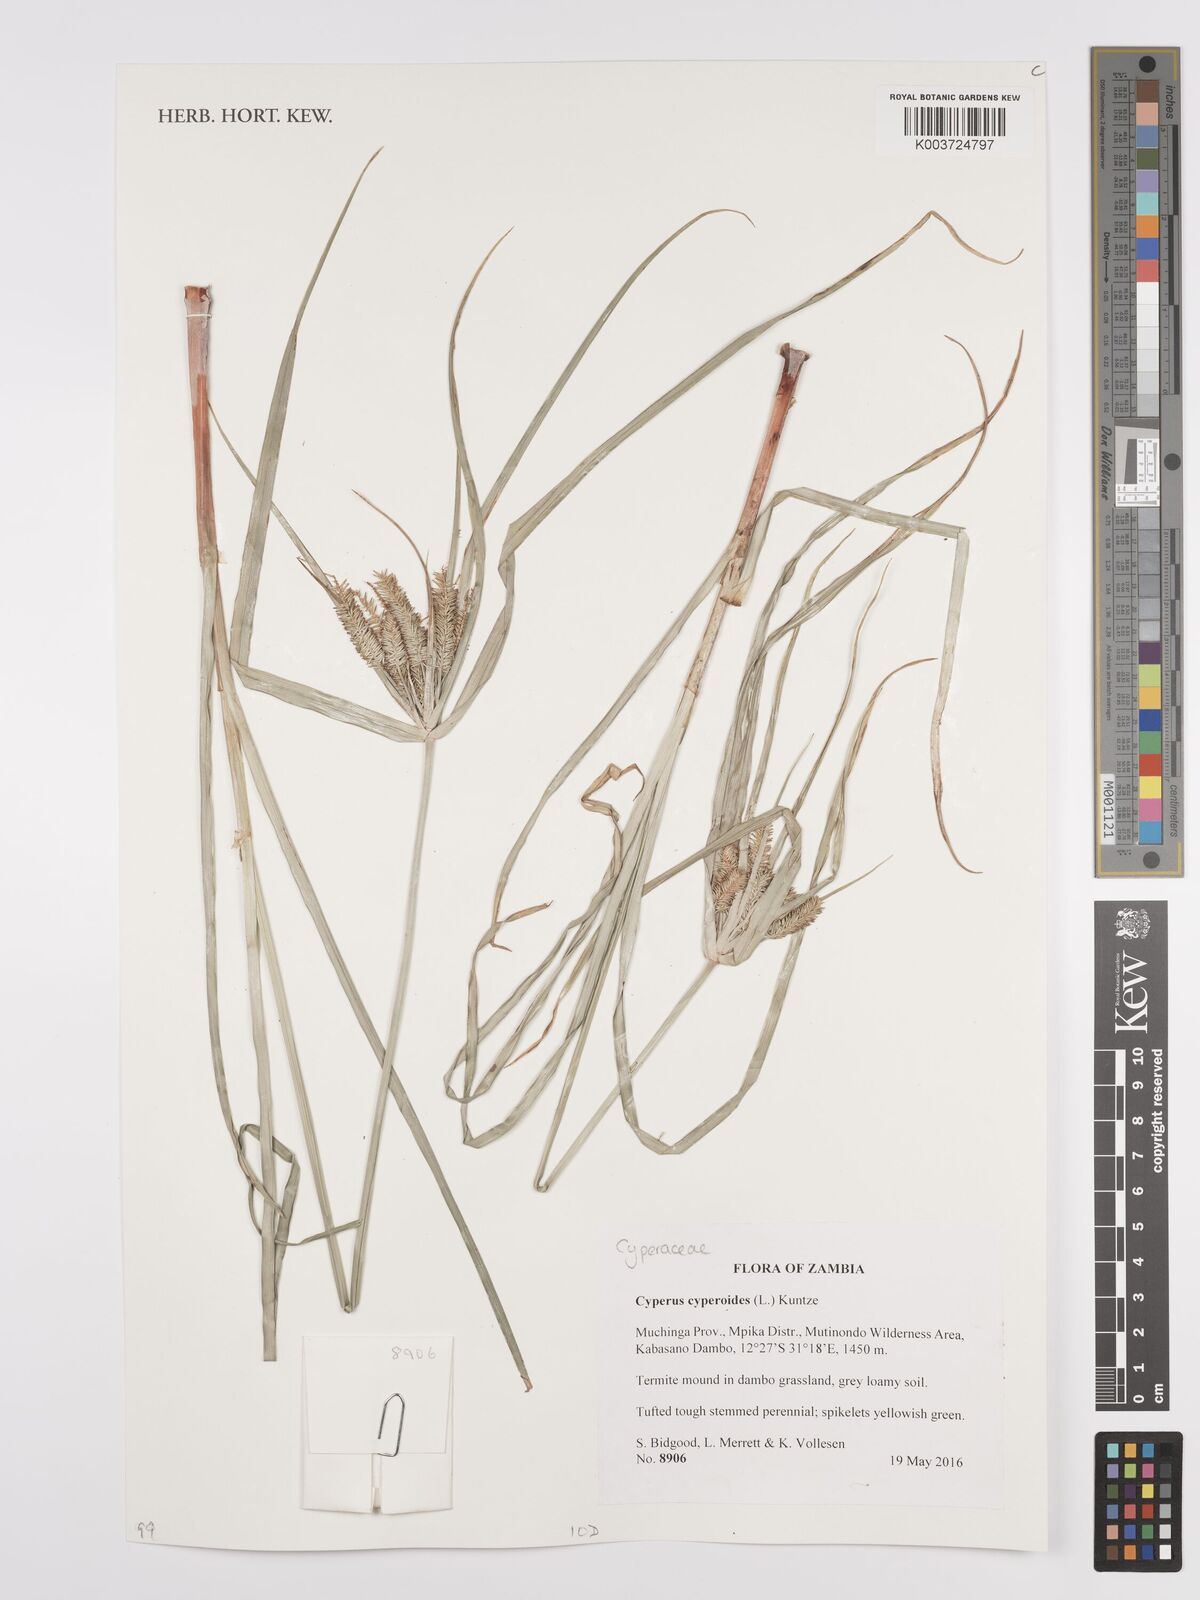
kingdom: Plantae
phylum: Tracheophyta
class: Liliopsida
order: Poales
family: Cyperaceae
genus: Cyperus
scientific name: Cyperus cyperoides
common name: Pacific island flat sedge
